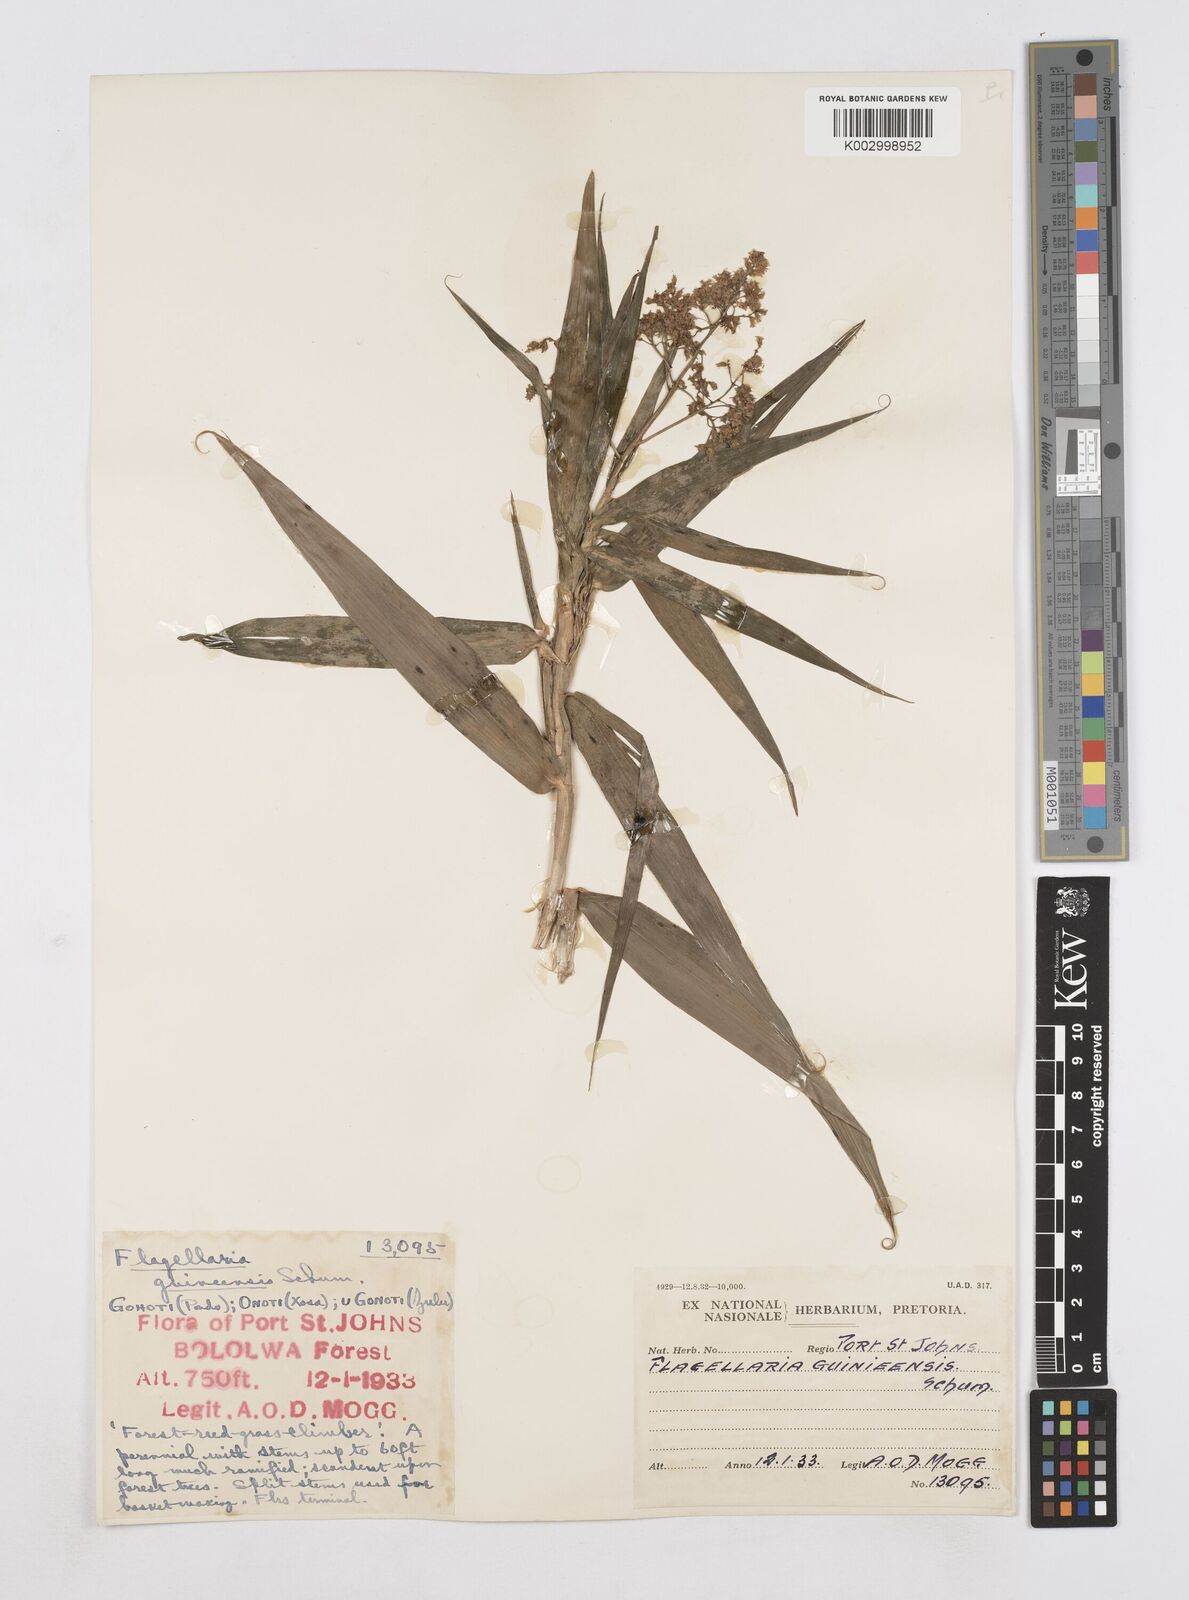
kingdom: Plantae
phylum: Tracheophyta
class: Liliopsida
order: Poales
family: Flagellariaceae
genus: Flagellaria
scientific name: Flagellaria guineensis
